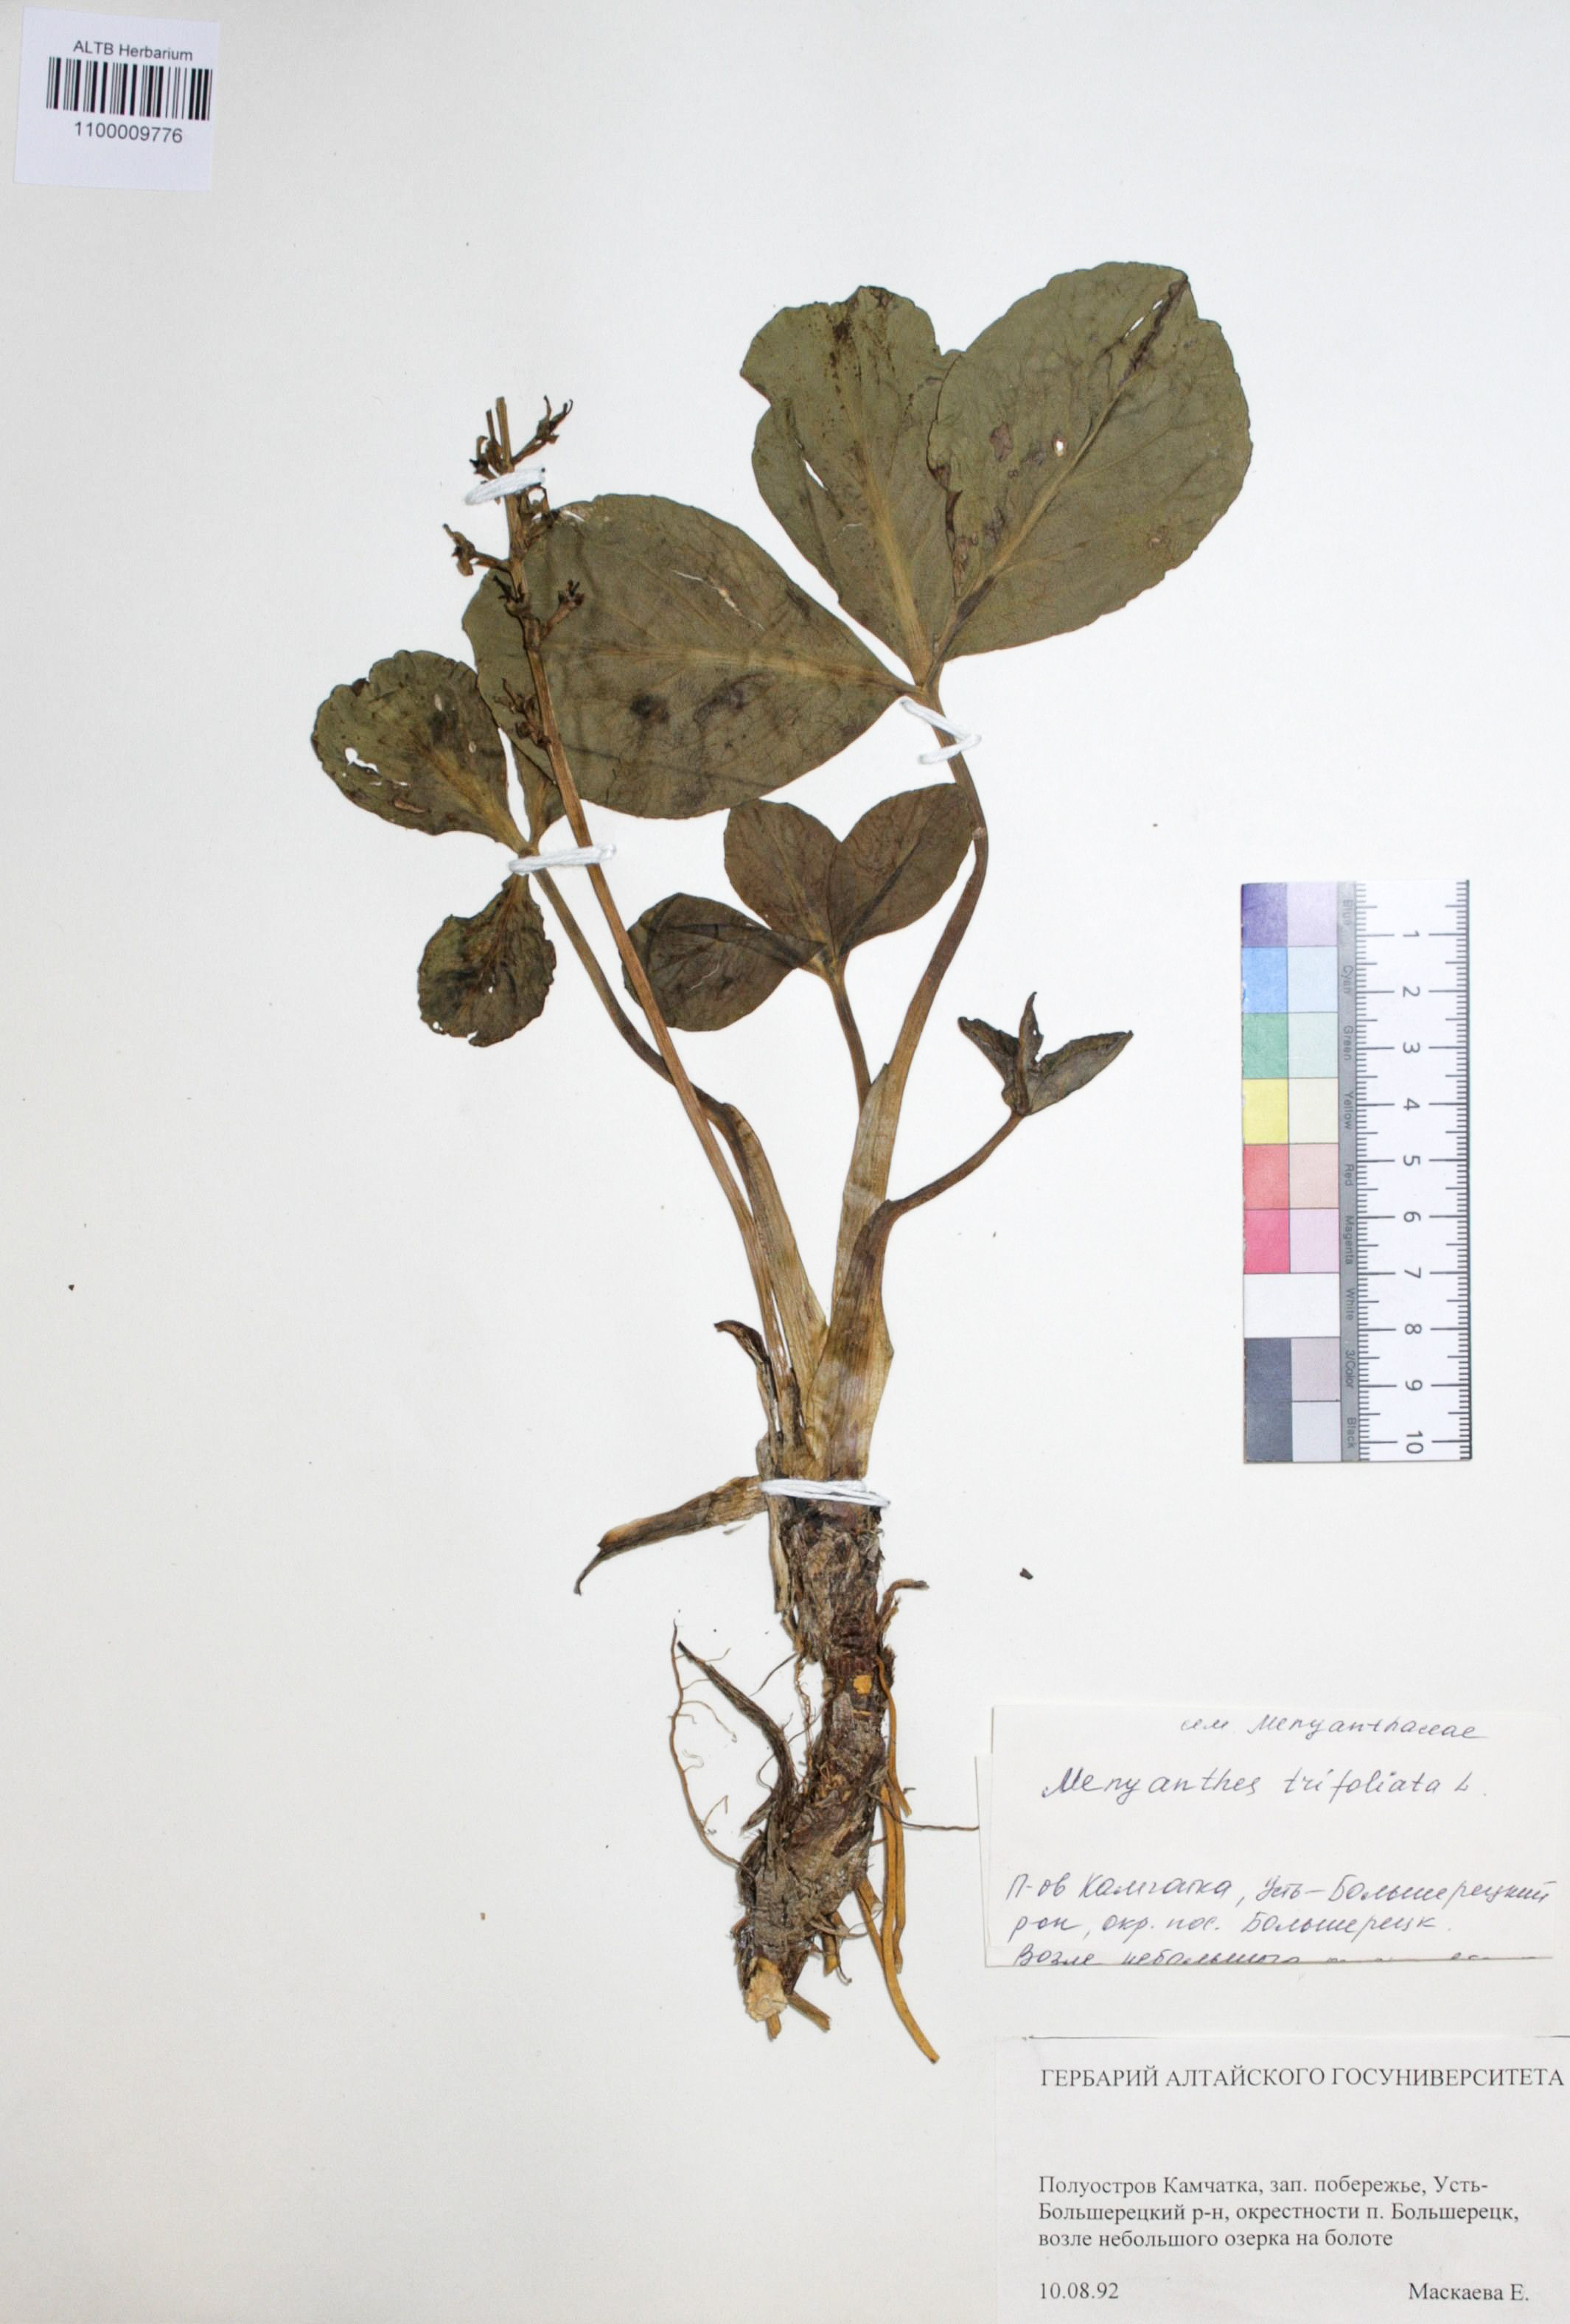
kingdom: Plantae
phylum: Tracheophyta
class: Magnoliopsida
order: Asterales
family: Menyanthaceae
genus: Menyanthes
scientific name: Menyanthes trifoliata
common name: Bogbean
